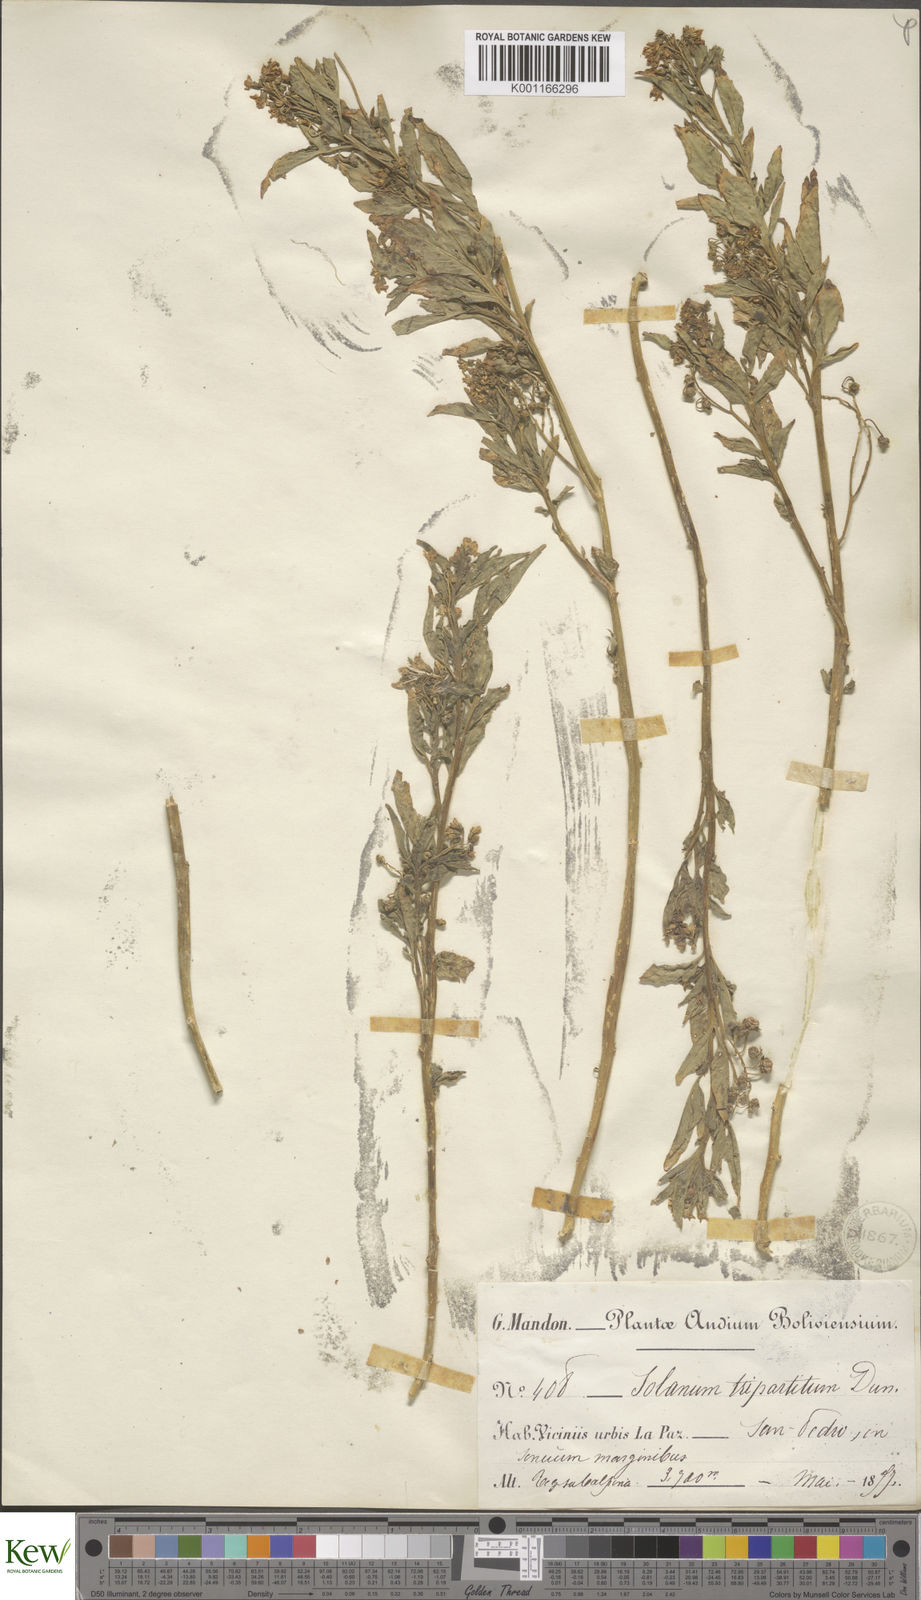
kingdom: Plantae
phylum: Tracheophyta
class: Magnoliopsida
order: Solanales
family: Solanaceae
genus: Solanum
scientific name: Solanum tripartitum
